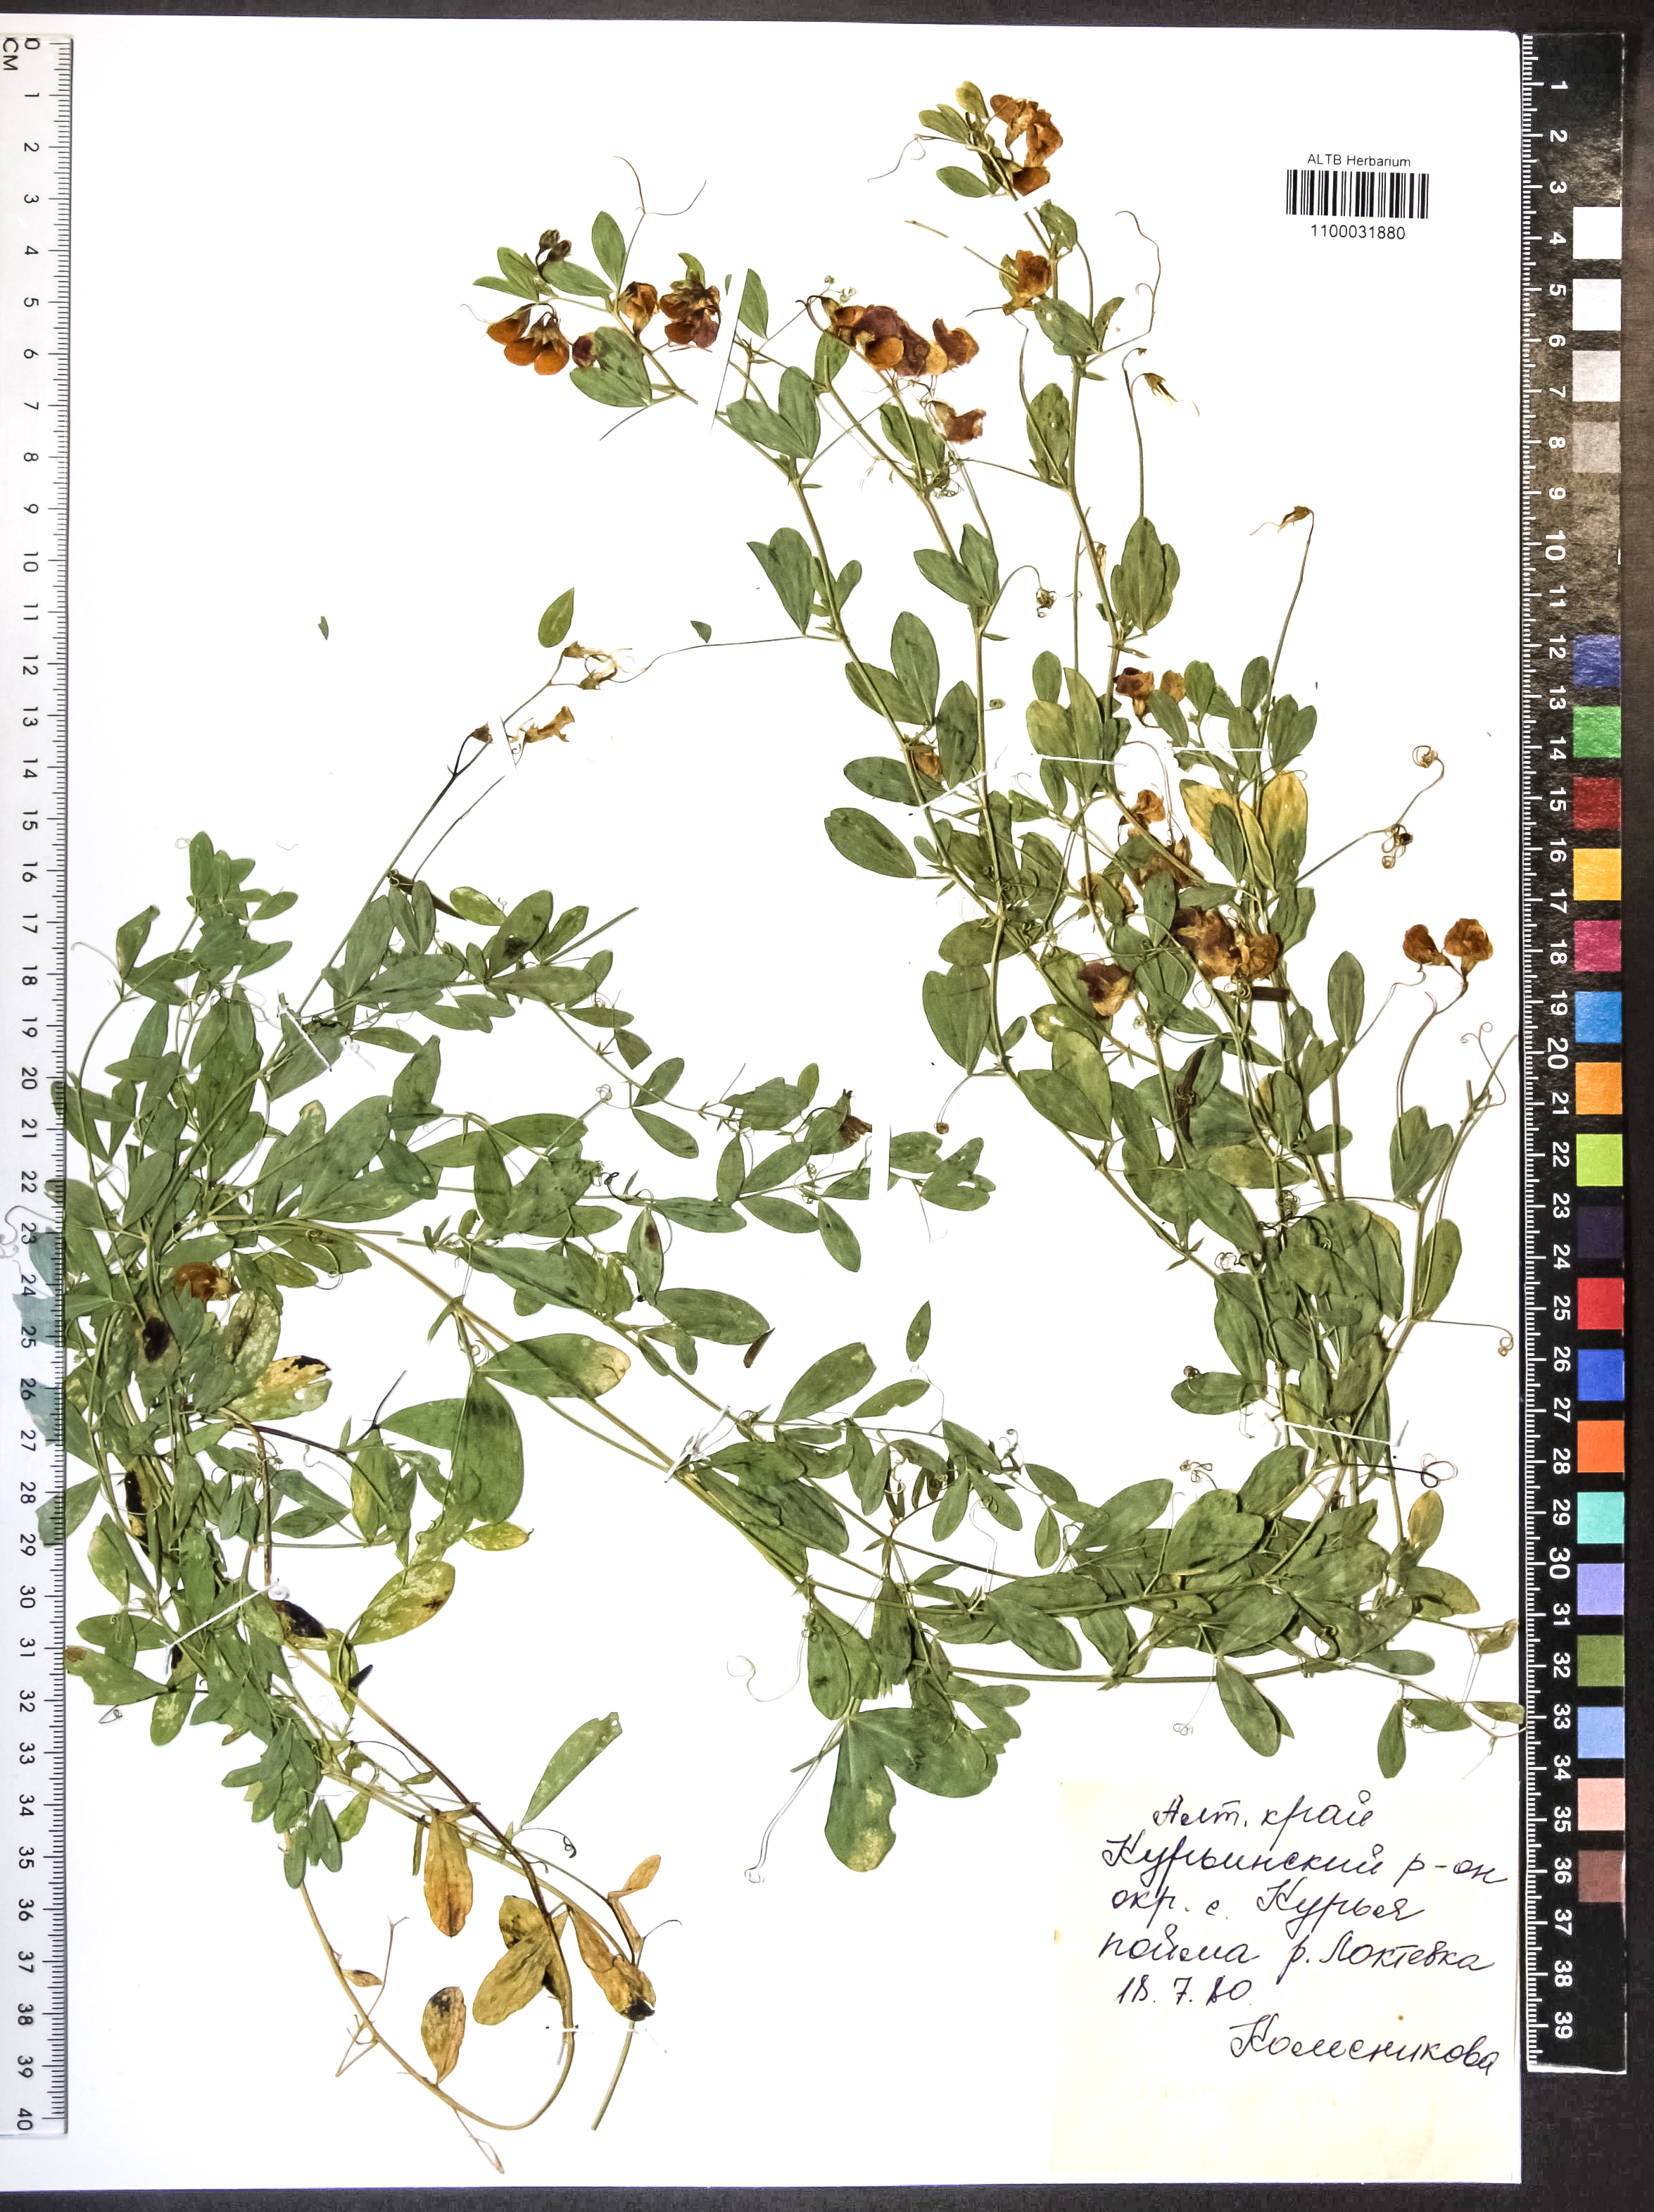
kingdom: Plantae
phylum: Tracheophyta
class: Magnoliopsida
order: Fabales
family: Fabaceae
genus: Lathyrus
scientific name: Lathyrus tuberosus
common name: Tuberous pea
